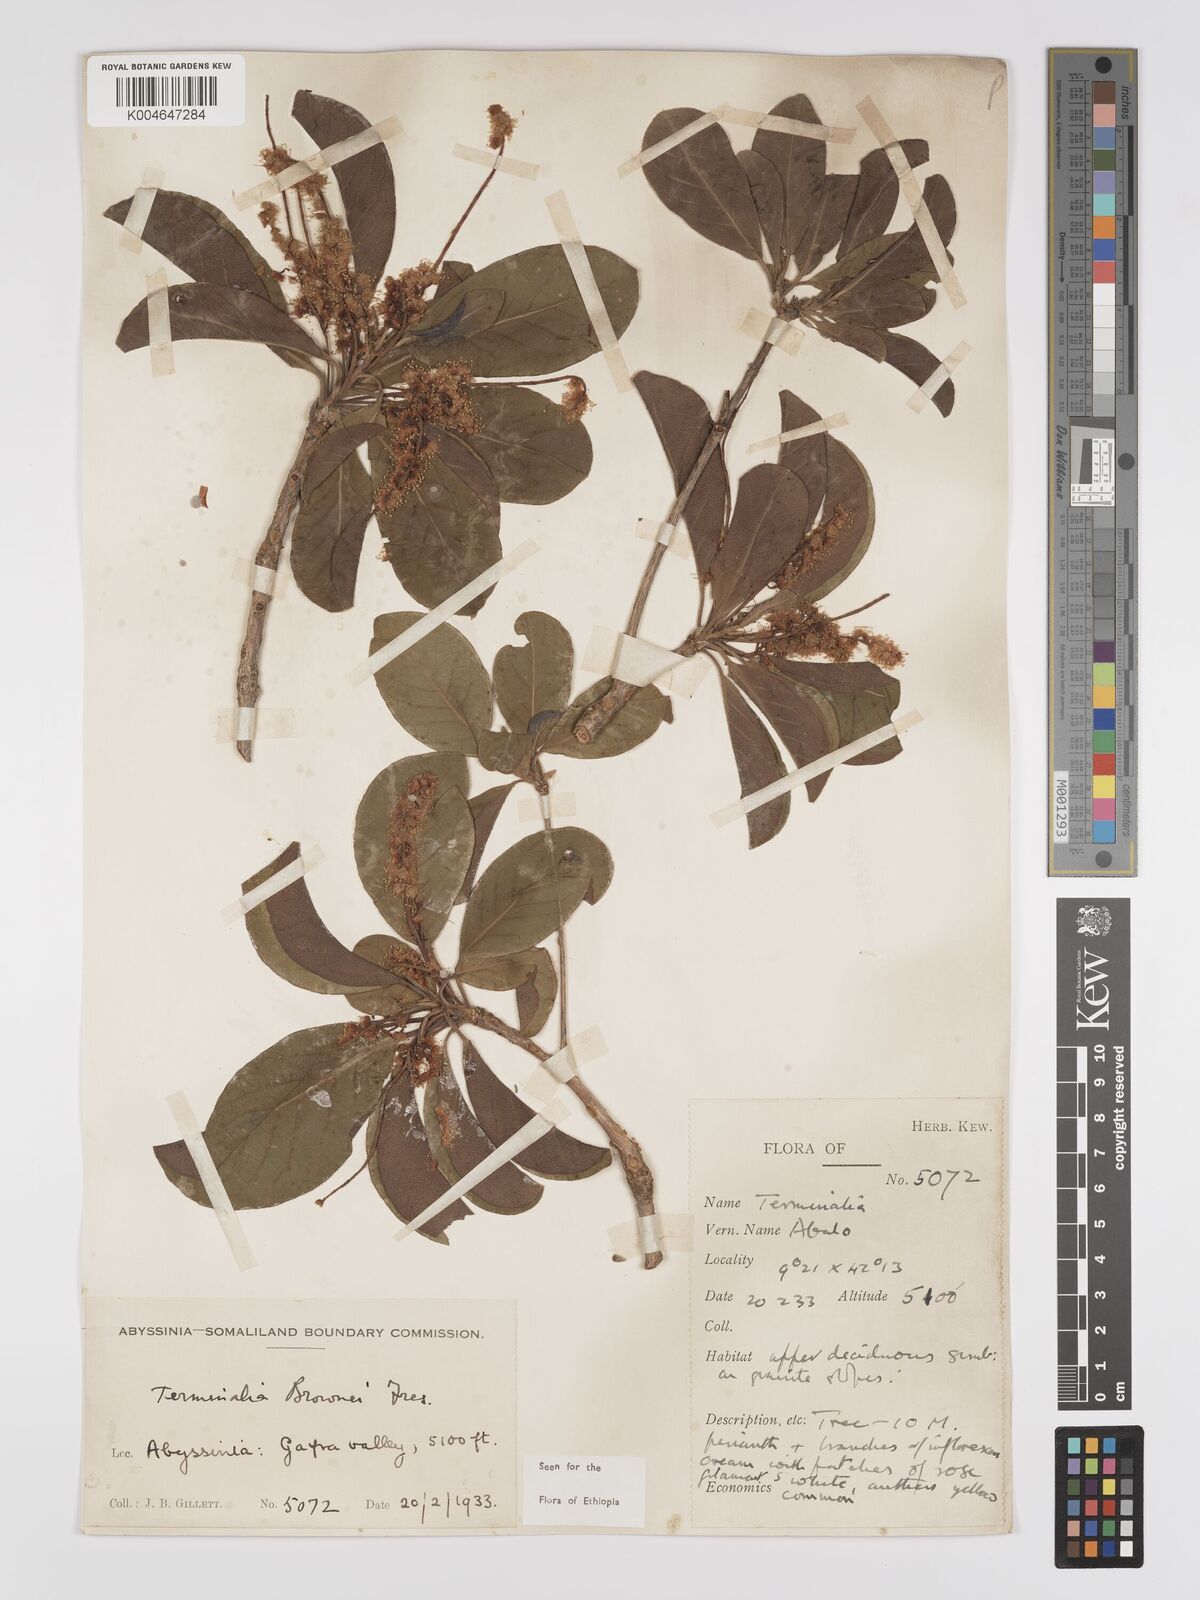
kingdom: Plantae
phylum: Tracheophyta
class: Magnoliopsida
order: Myrtales
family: Combretaceae
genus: Terminalia
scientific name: Terminalia brownii
